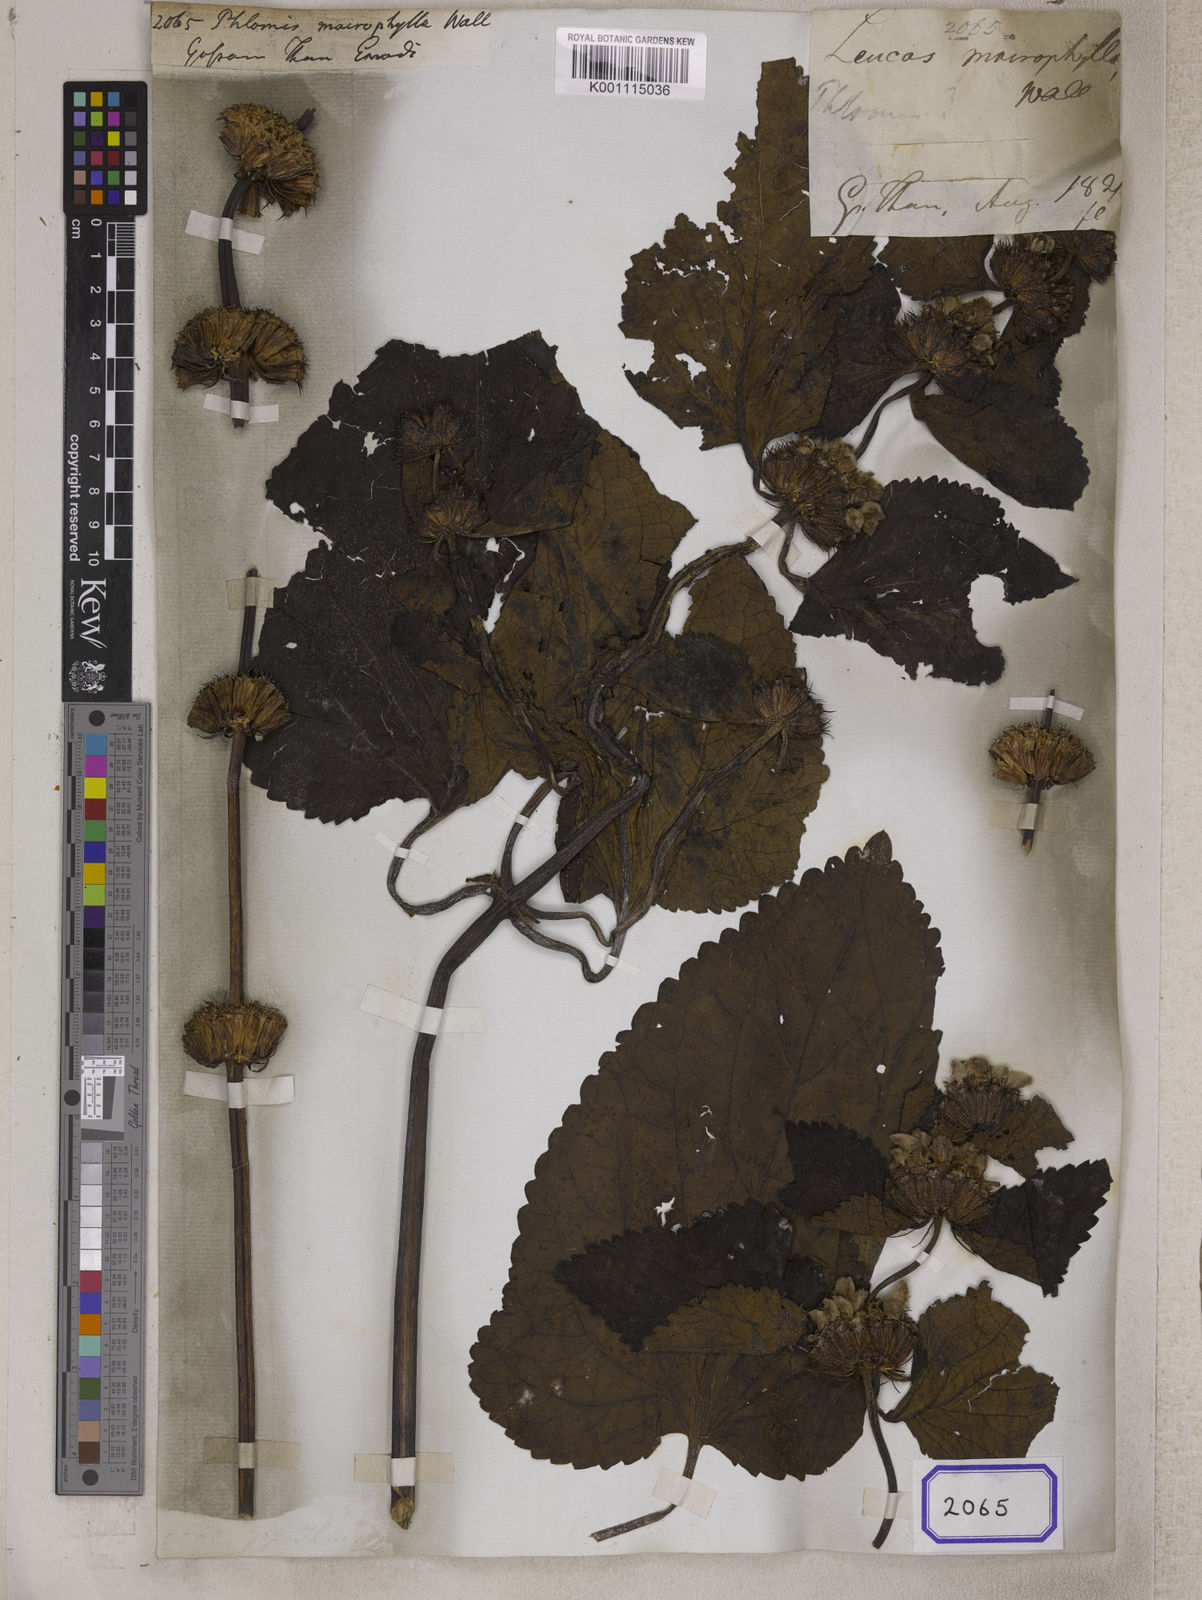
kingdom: Plantae
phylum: Tracheophyta
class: Magnoliopsida
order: Lamiales
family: Lamiaceae
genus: Phlomis
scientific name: Phlomis
